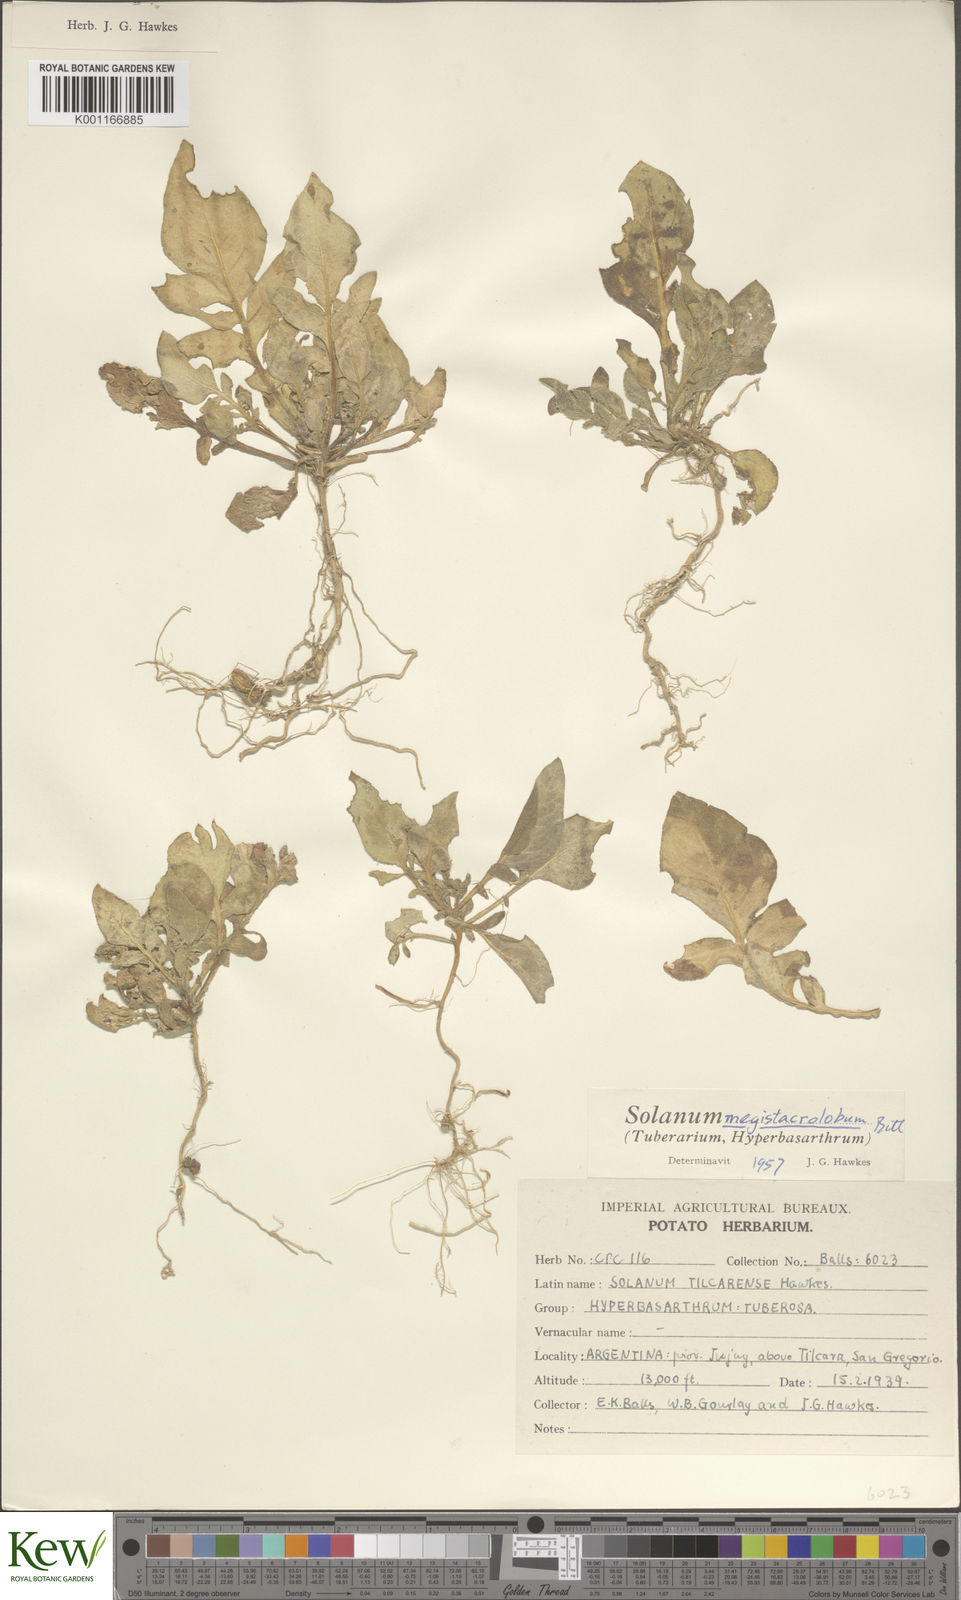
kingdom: Plantae
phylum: Tracheophyta
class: Magnoliopsida
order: Solanales
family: Solanaceae
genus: Solanum
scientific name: Solanum boliviense
